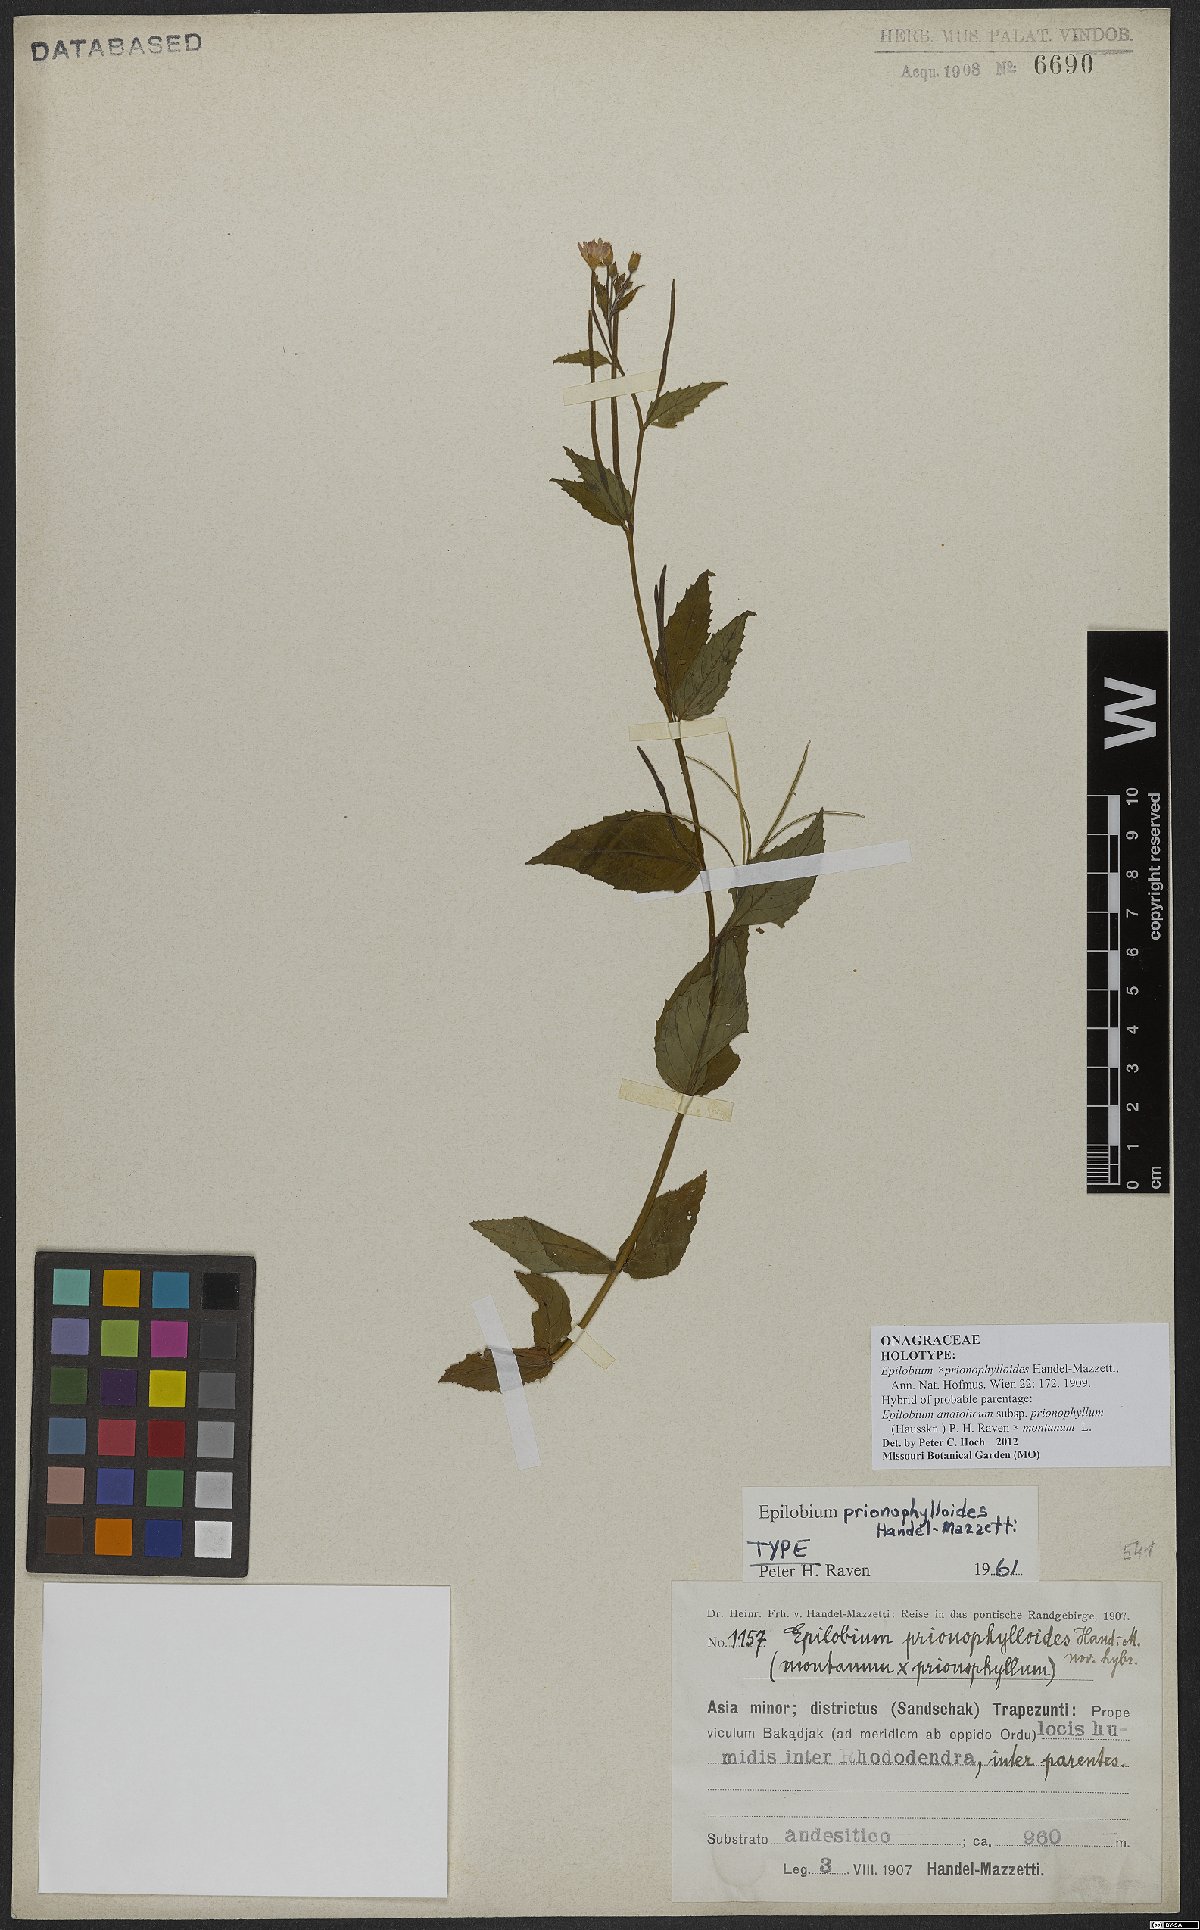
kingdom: Plantae
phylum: Tracheophyta
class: Magnoliopsida
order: Myrtales
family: Onagraceae
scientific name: Onagraceae
